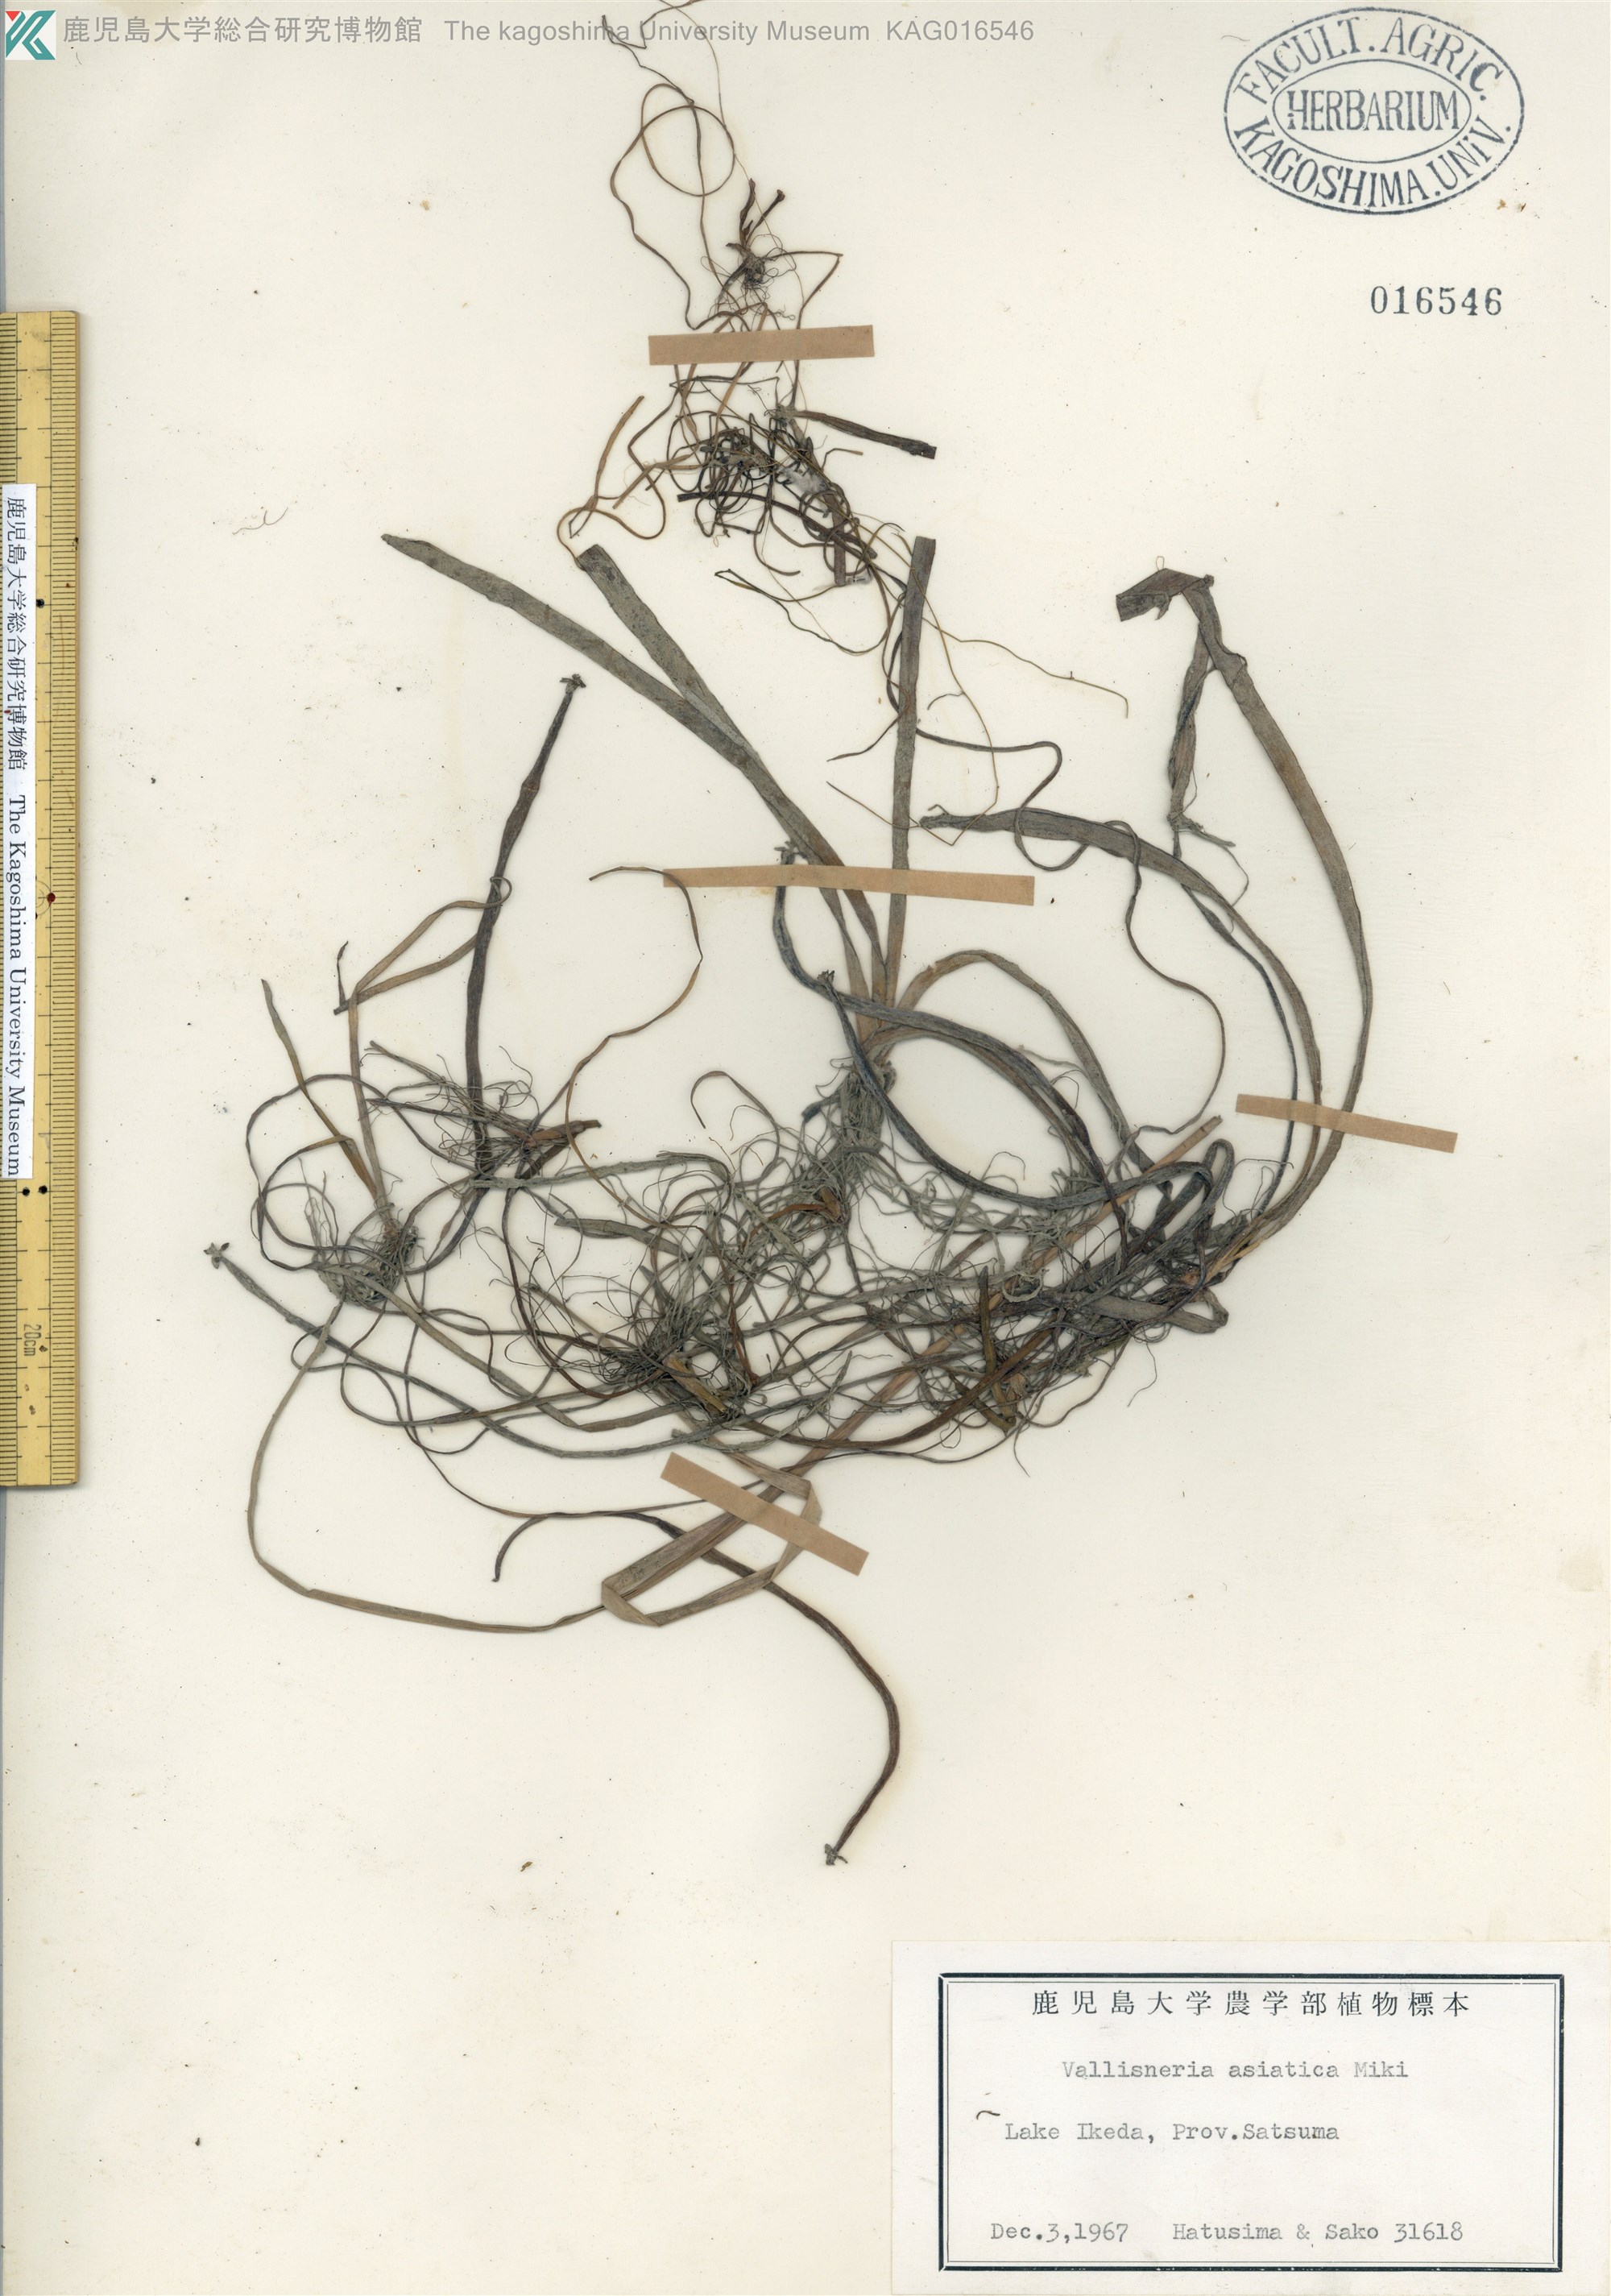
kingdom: Plantae
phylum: Tracheophyta
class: Liliopsida
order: Alismatales
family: Hydrocharitaceae
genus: Vallisneria
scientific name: Vallisneria natans
